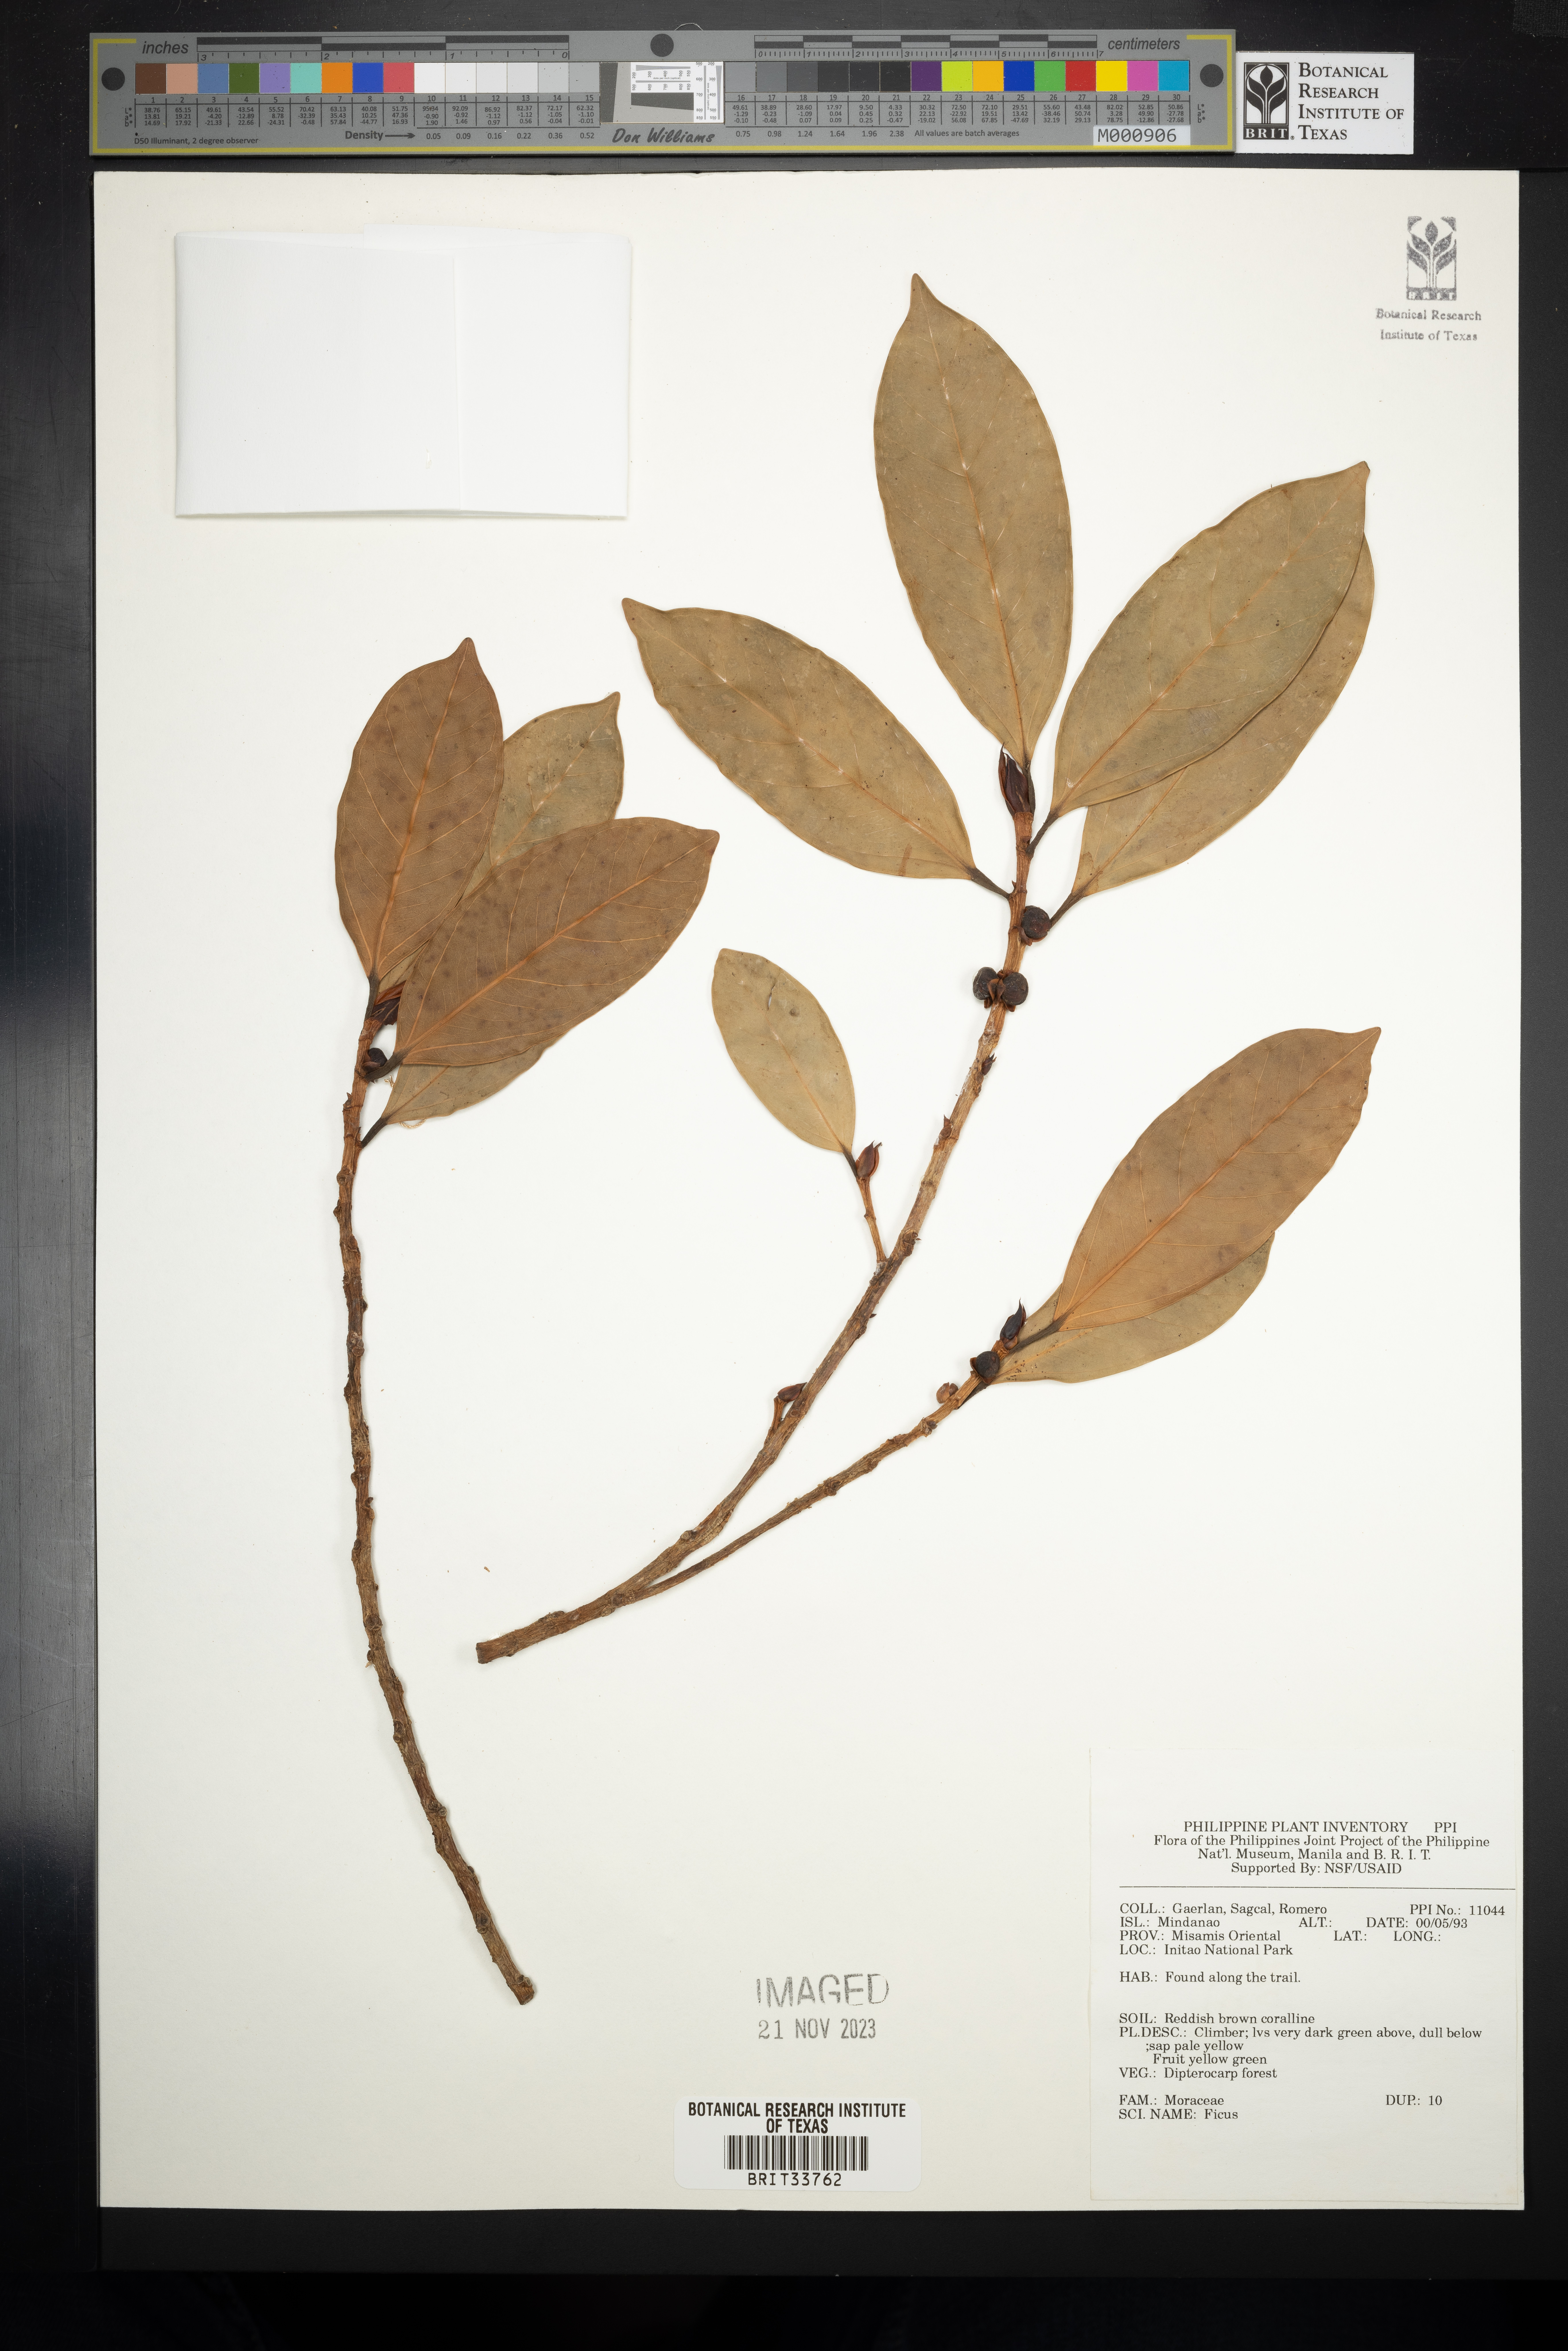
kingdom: Plantae
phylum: Tracheophyta
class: Magnoliopsida
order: Rosales
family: Moraceae
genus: Ficus
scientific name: Ficus
